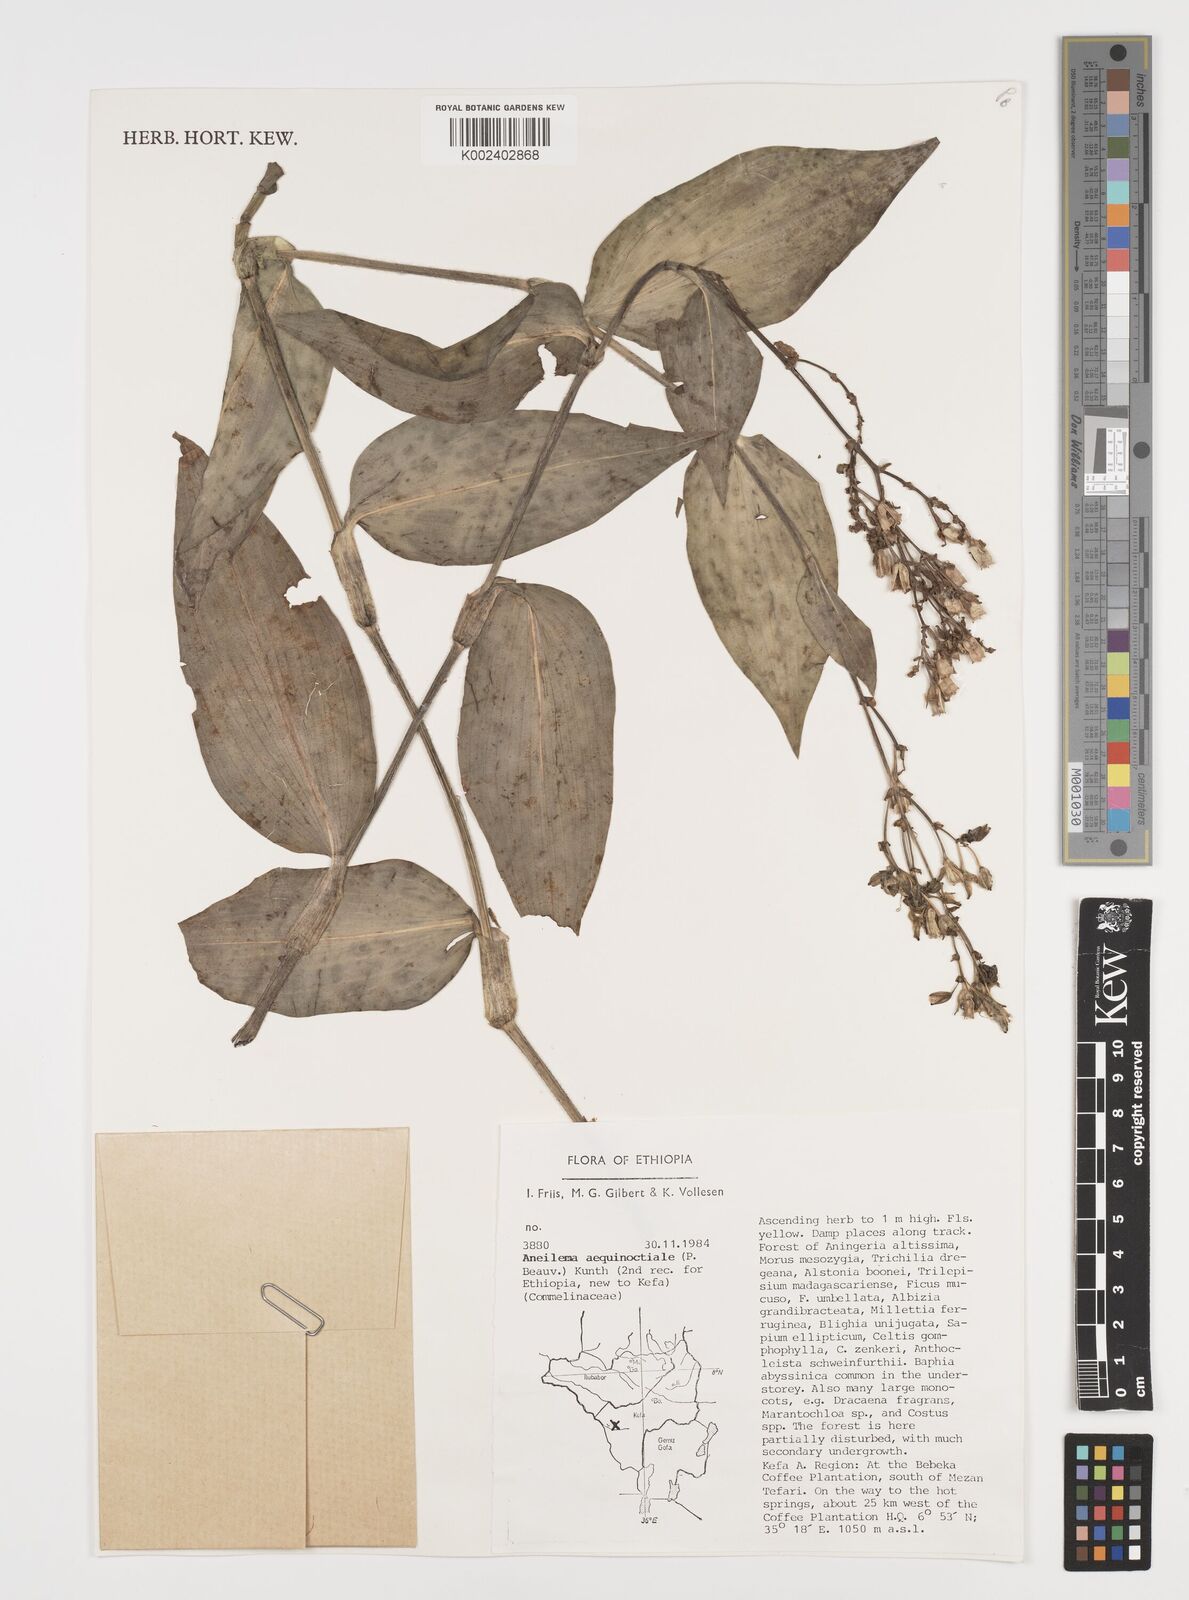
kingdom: Plantae
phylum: Tracheophyta
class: Liliopsida
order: Commelinales
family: Commelinaceae
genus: Aneilema
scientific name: Aneilema aequinoctiale
